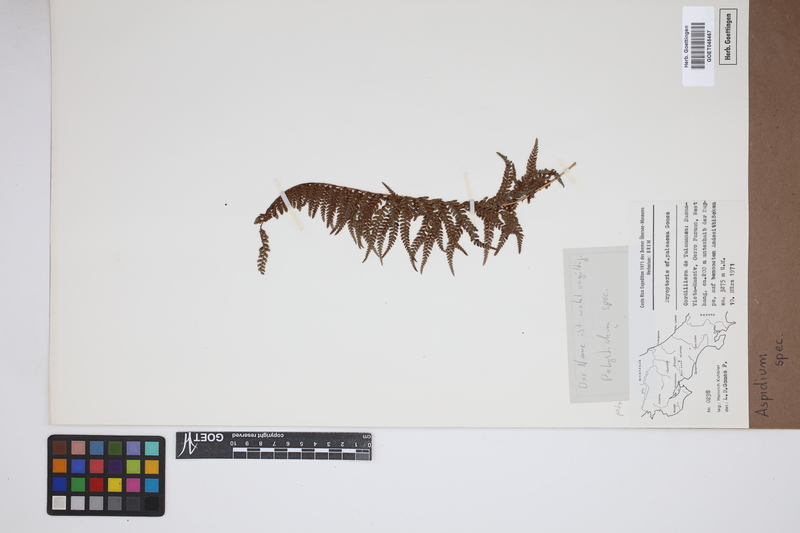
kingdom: Plantae
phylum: Tracheophyta
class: Polypodiopsida
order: Polypodiales
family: Tectariaceae
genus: Tectaria
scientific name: Tectaria Aspidium spec
